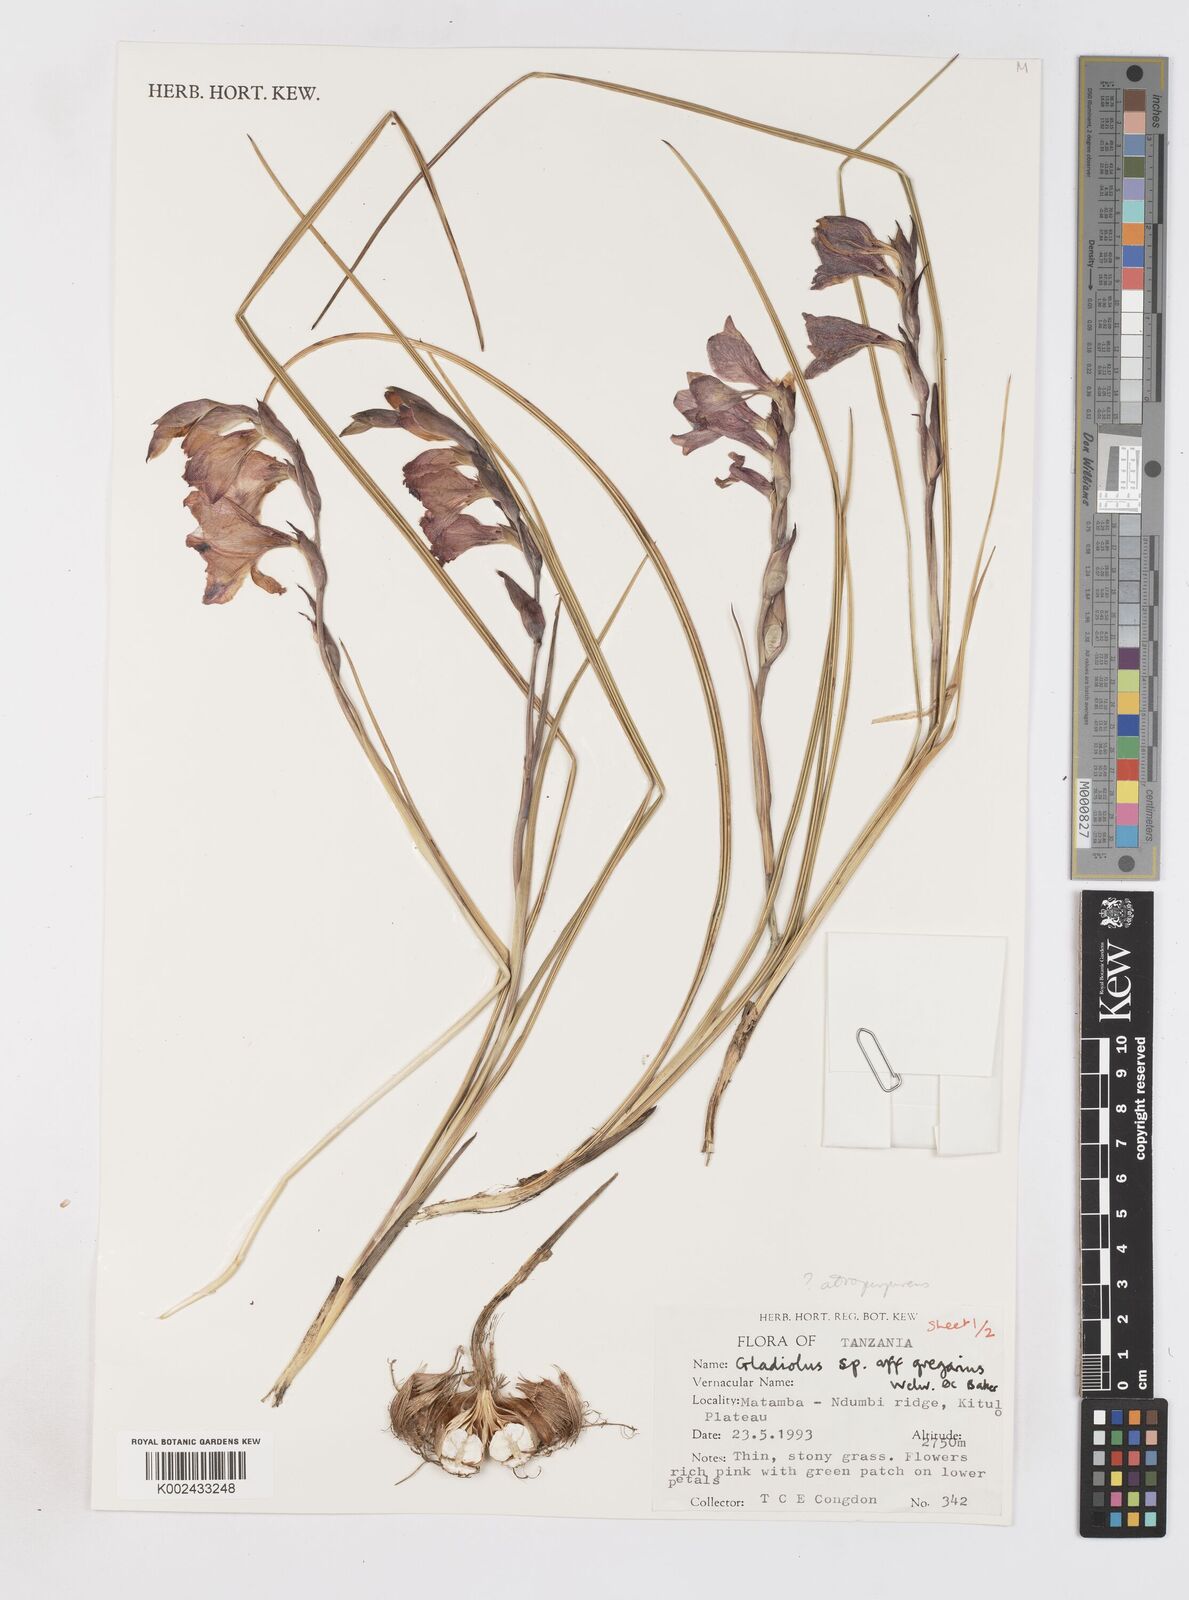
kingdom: Plantae
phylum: Tracheophyta
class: Liliopsida
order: Asparagales
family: Iridaceae
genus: Gladiolus
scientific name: Gladiolus gregarius
